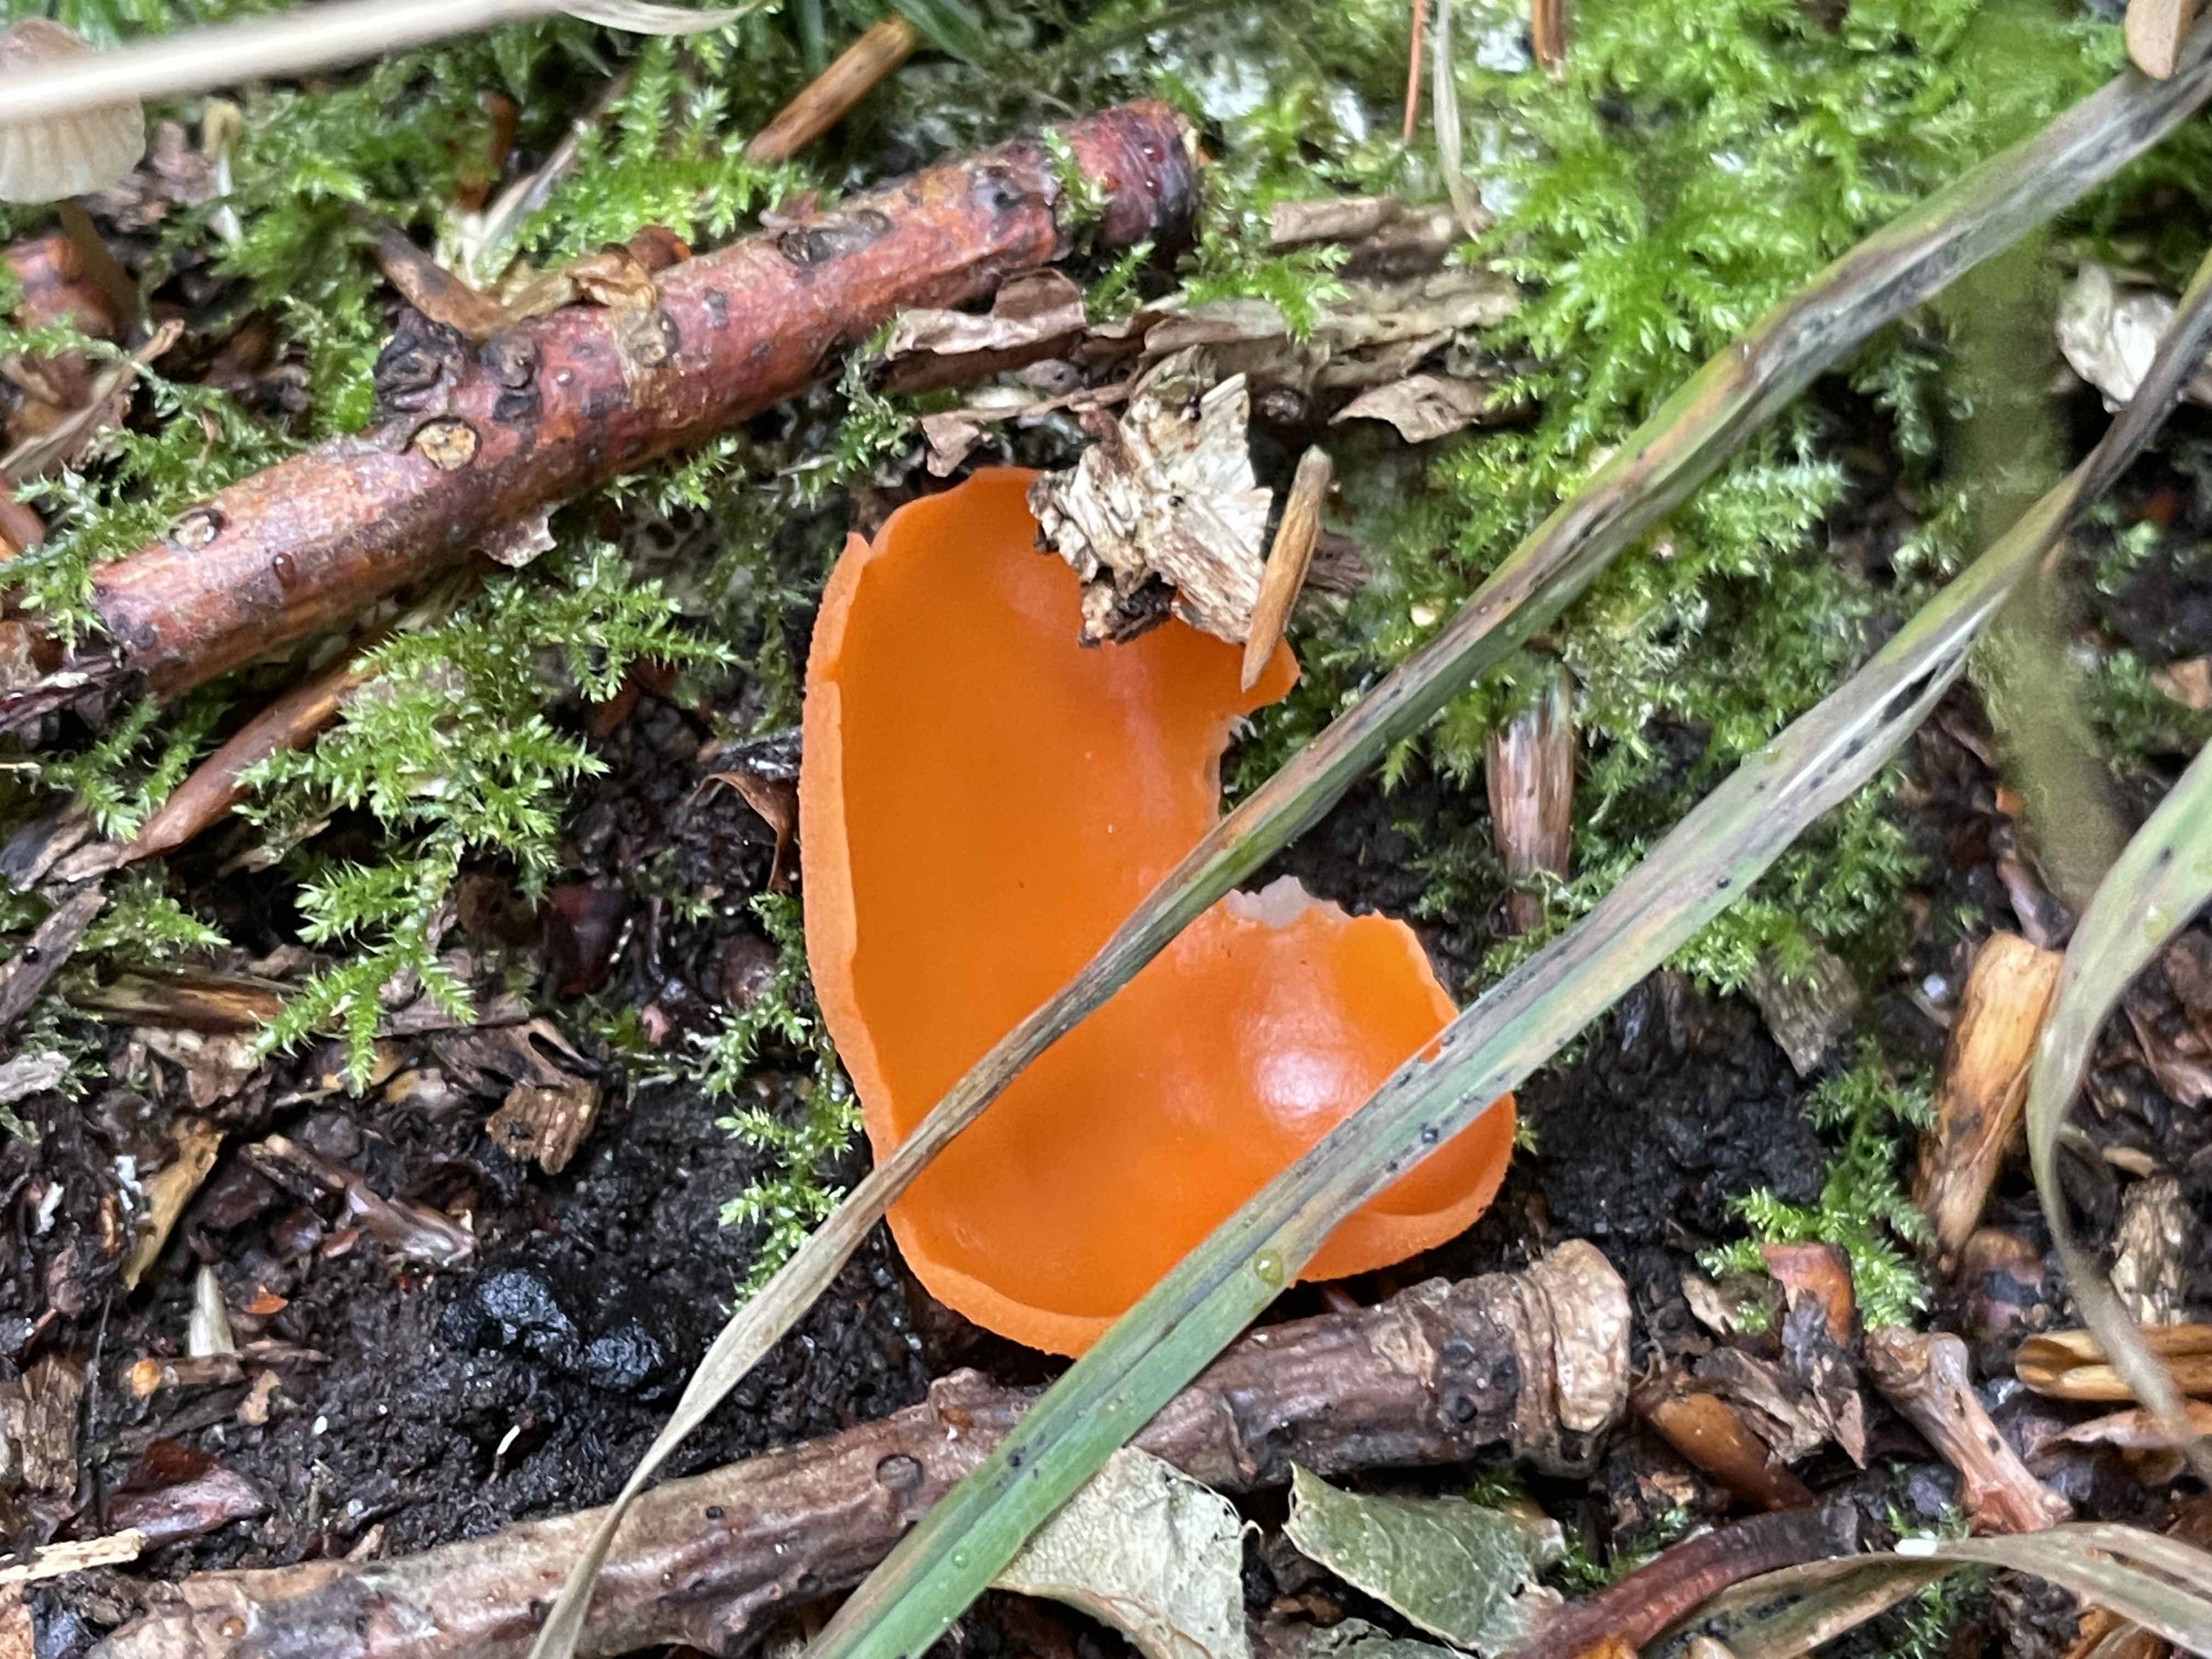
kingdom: Fungi
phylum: Ascomycota
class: Pezizomycetes
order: Pezizales
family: Pyronemataceae
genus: Aleuria
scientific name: Aleuria aurantia
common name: almindelig orangebæger
